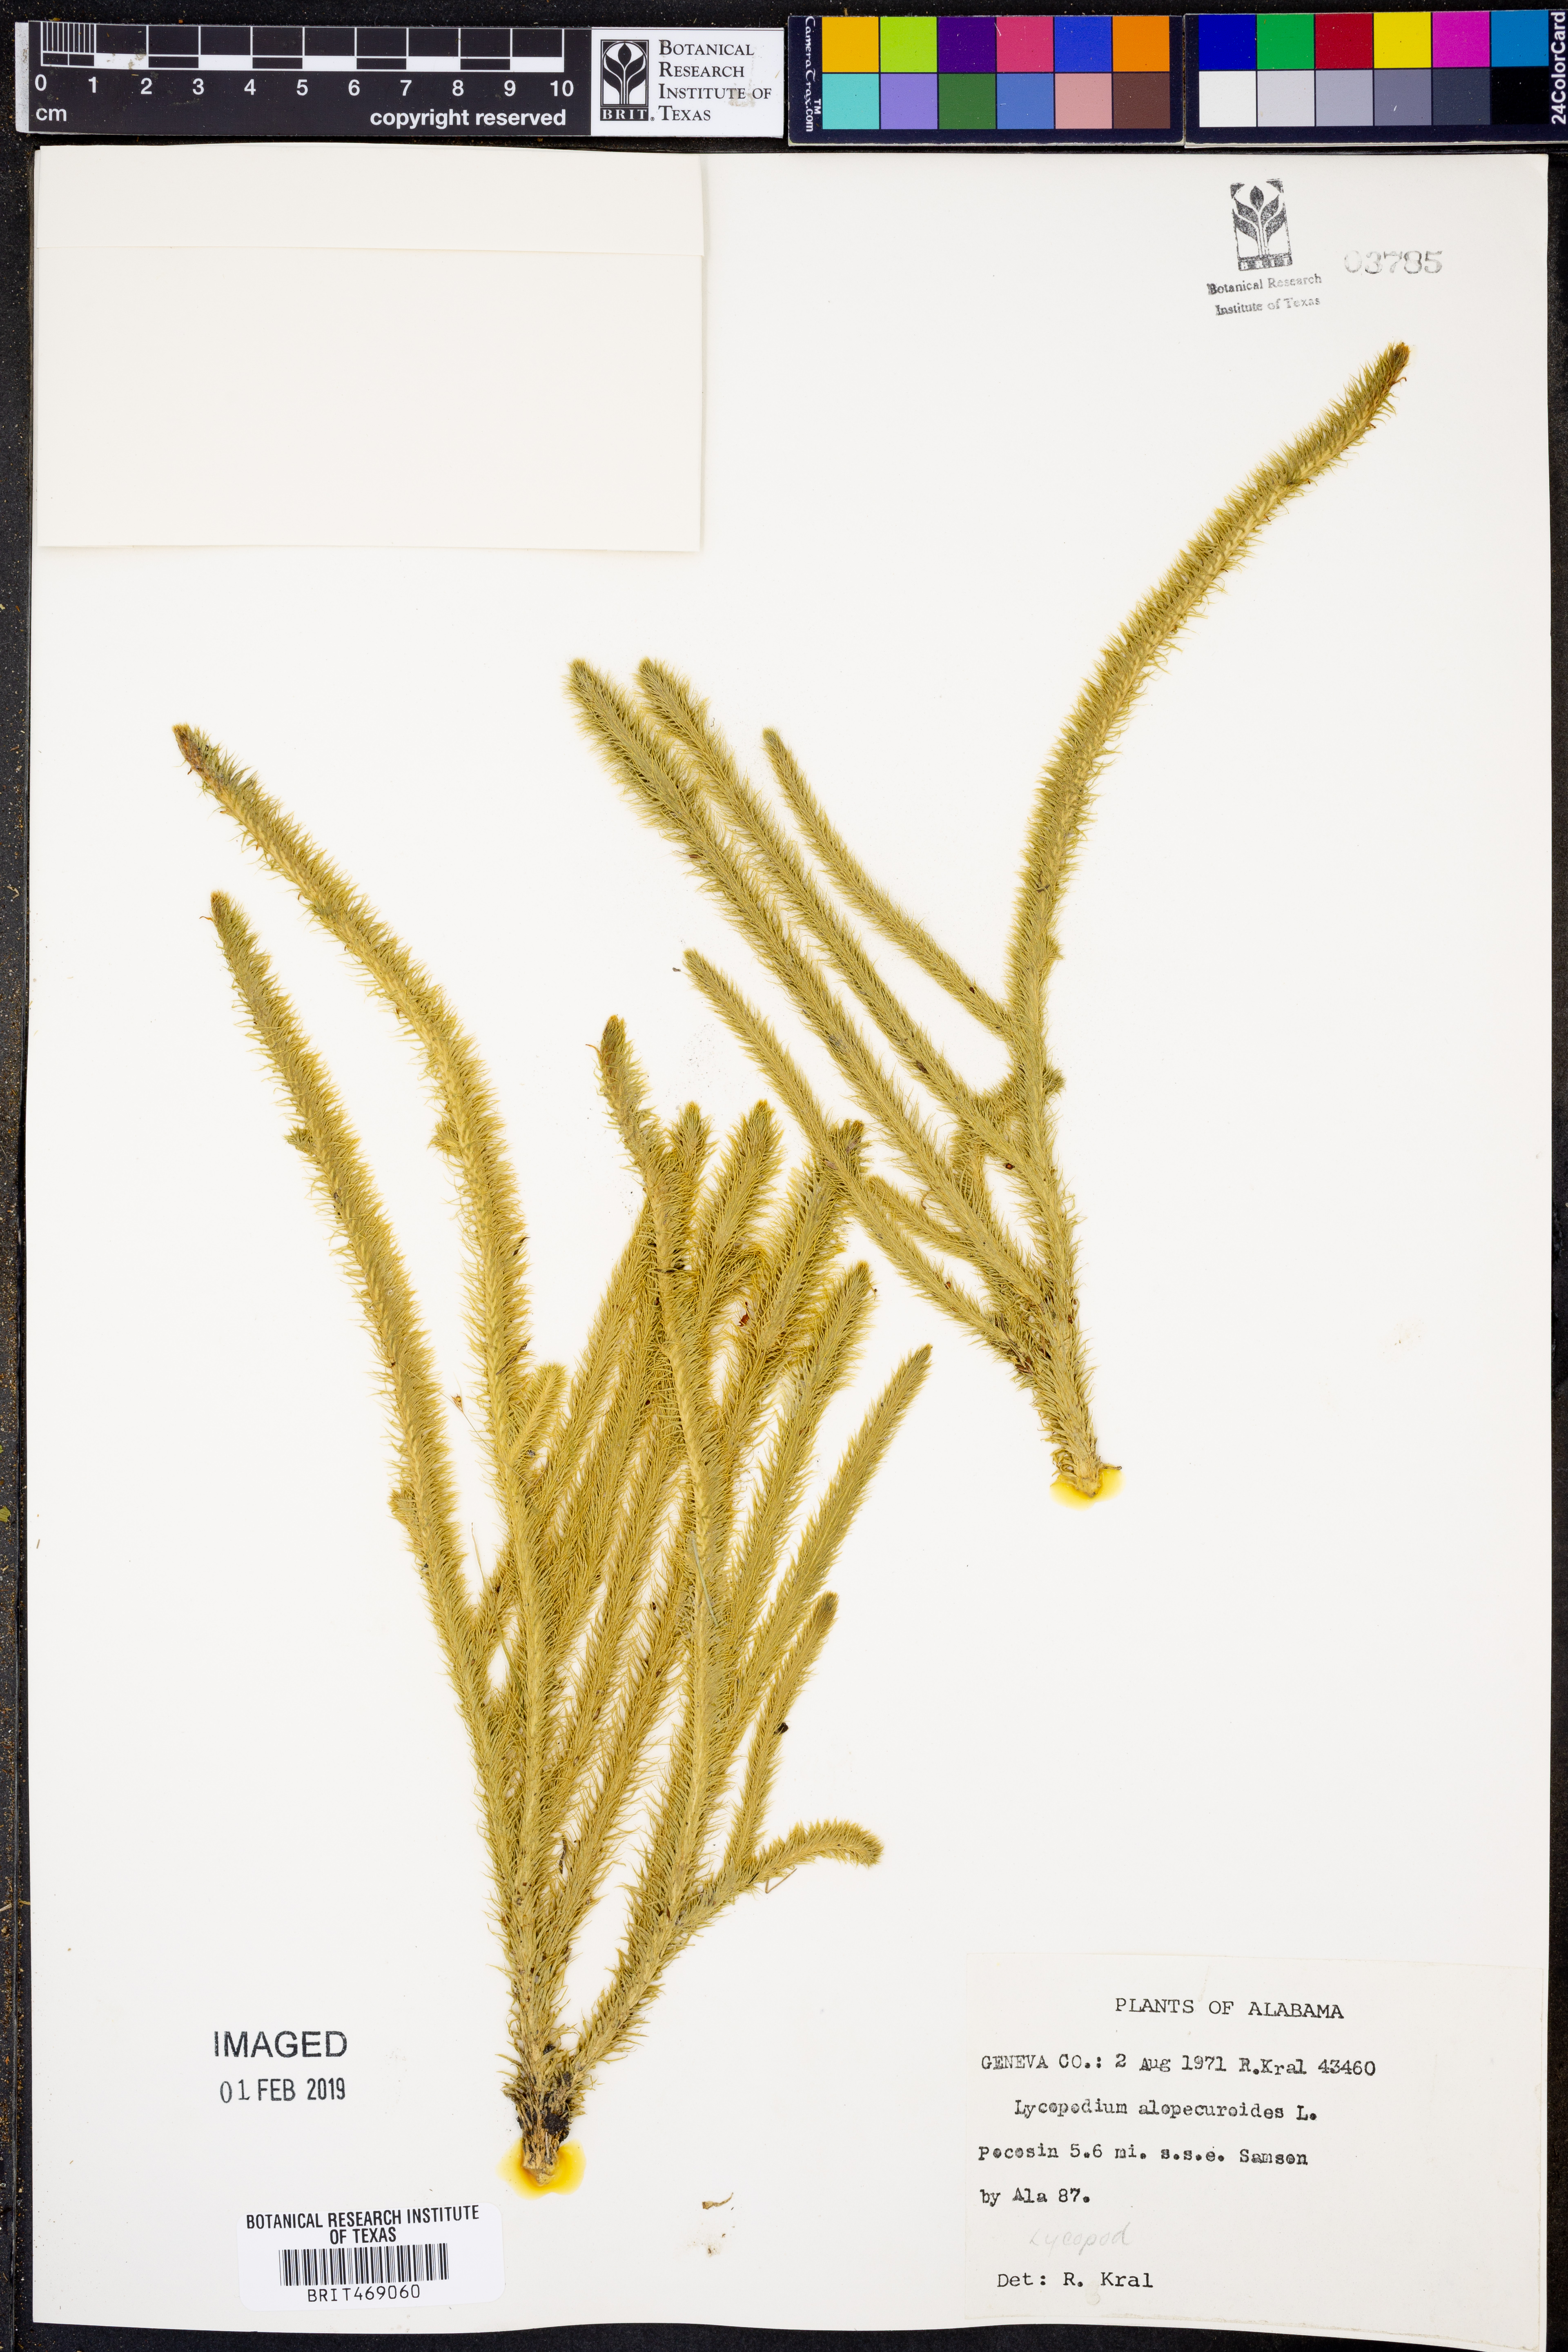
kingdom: Plantae
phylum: Tracheophyta
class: Lycopodiopsida
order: Lycopodiales
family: Lycopodiaceae
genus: Lycopodiella
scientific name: Lycopodiella alopecuroides
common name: Foxtail clubmoss
